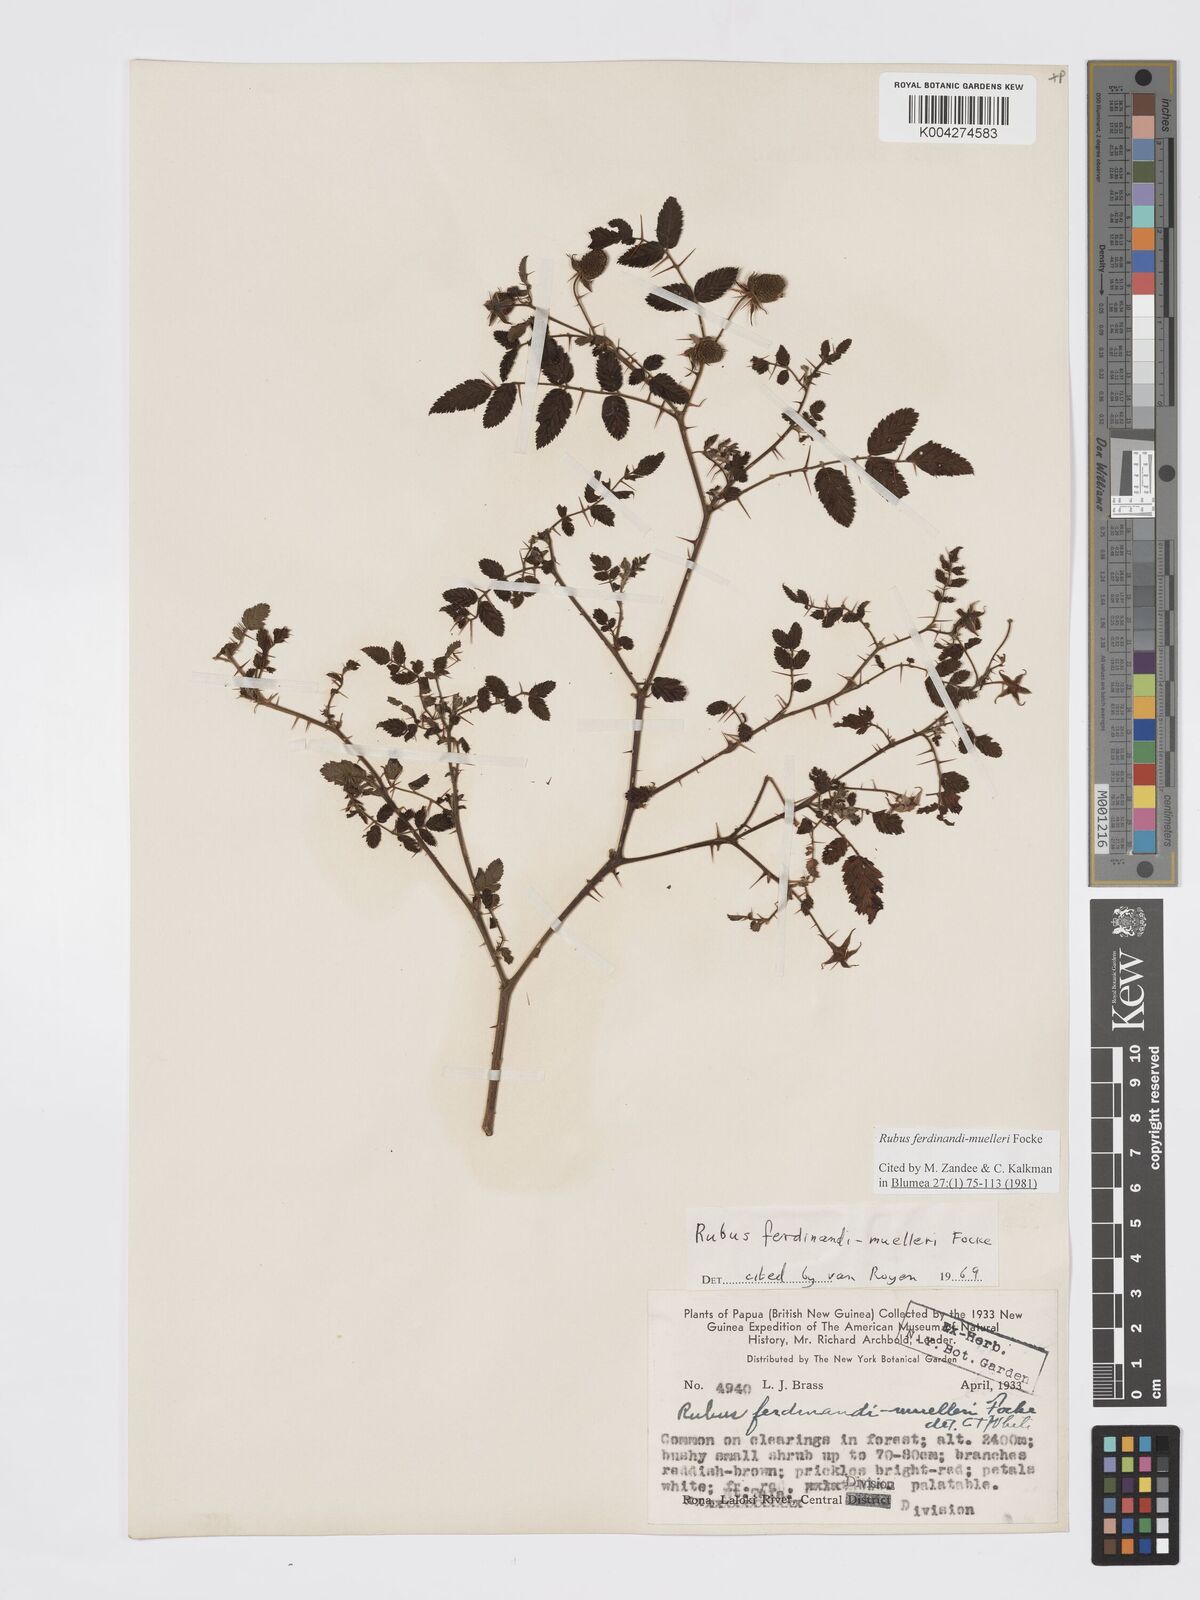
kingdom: Plantae
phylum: Tracheophyta
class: Magnoliopsida
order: Rosales
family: Rosaceae
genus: Rubus
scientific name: Rubus ferdinandimuelleri
